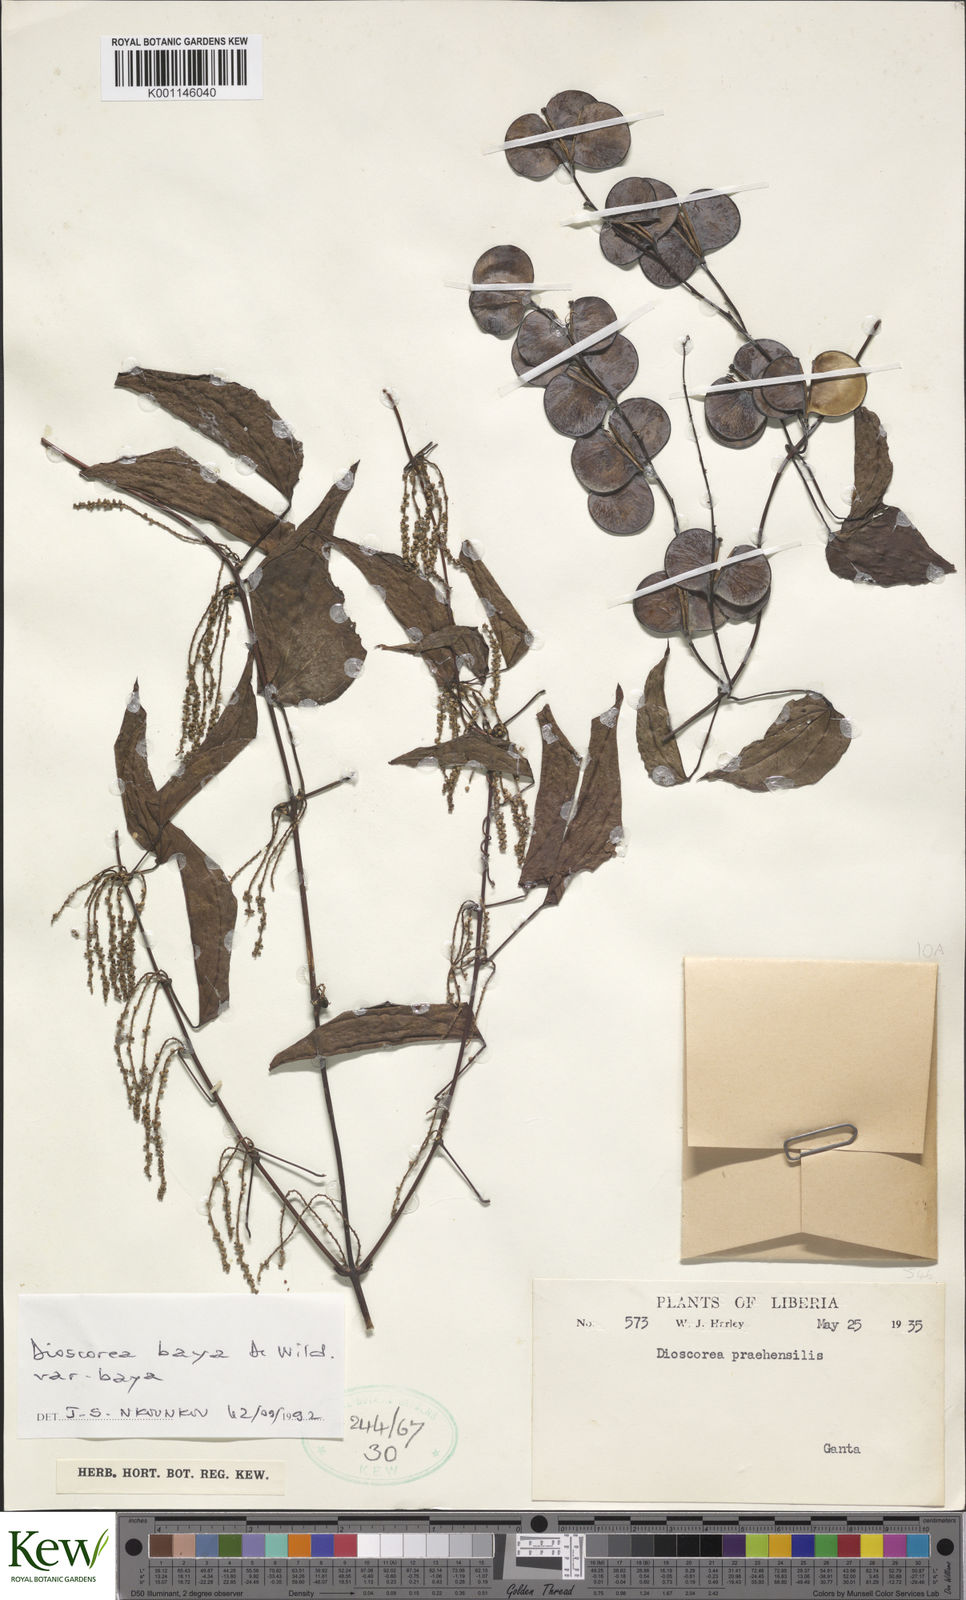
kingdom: Plantae
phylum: Tracheophyta
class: Liliopsida
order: Dioscoreales
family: Dioscoreaceae
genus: Dioscorea
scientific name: Dioscorea baya
